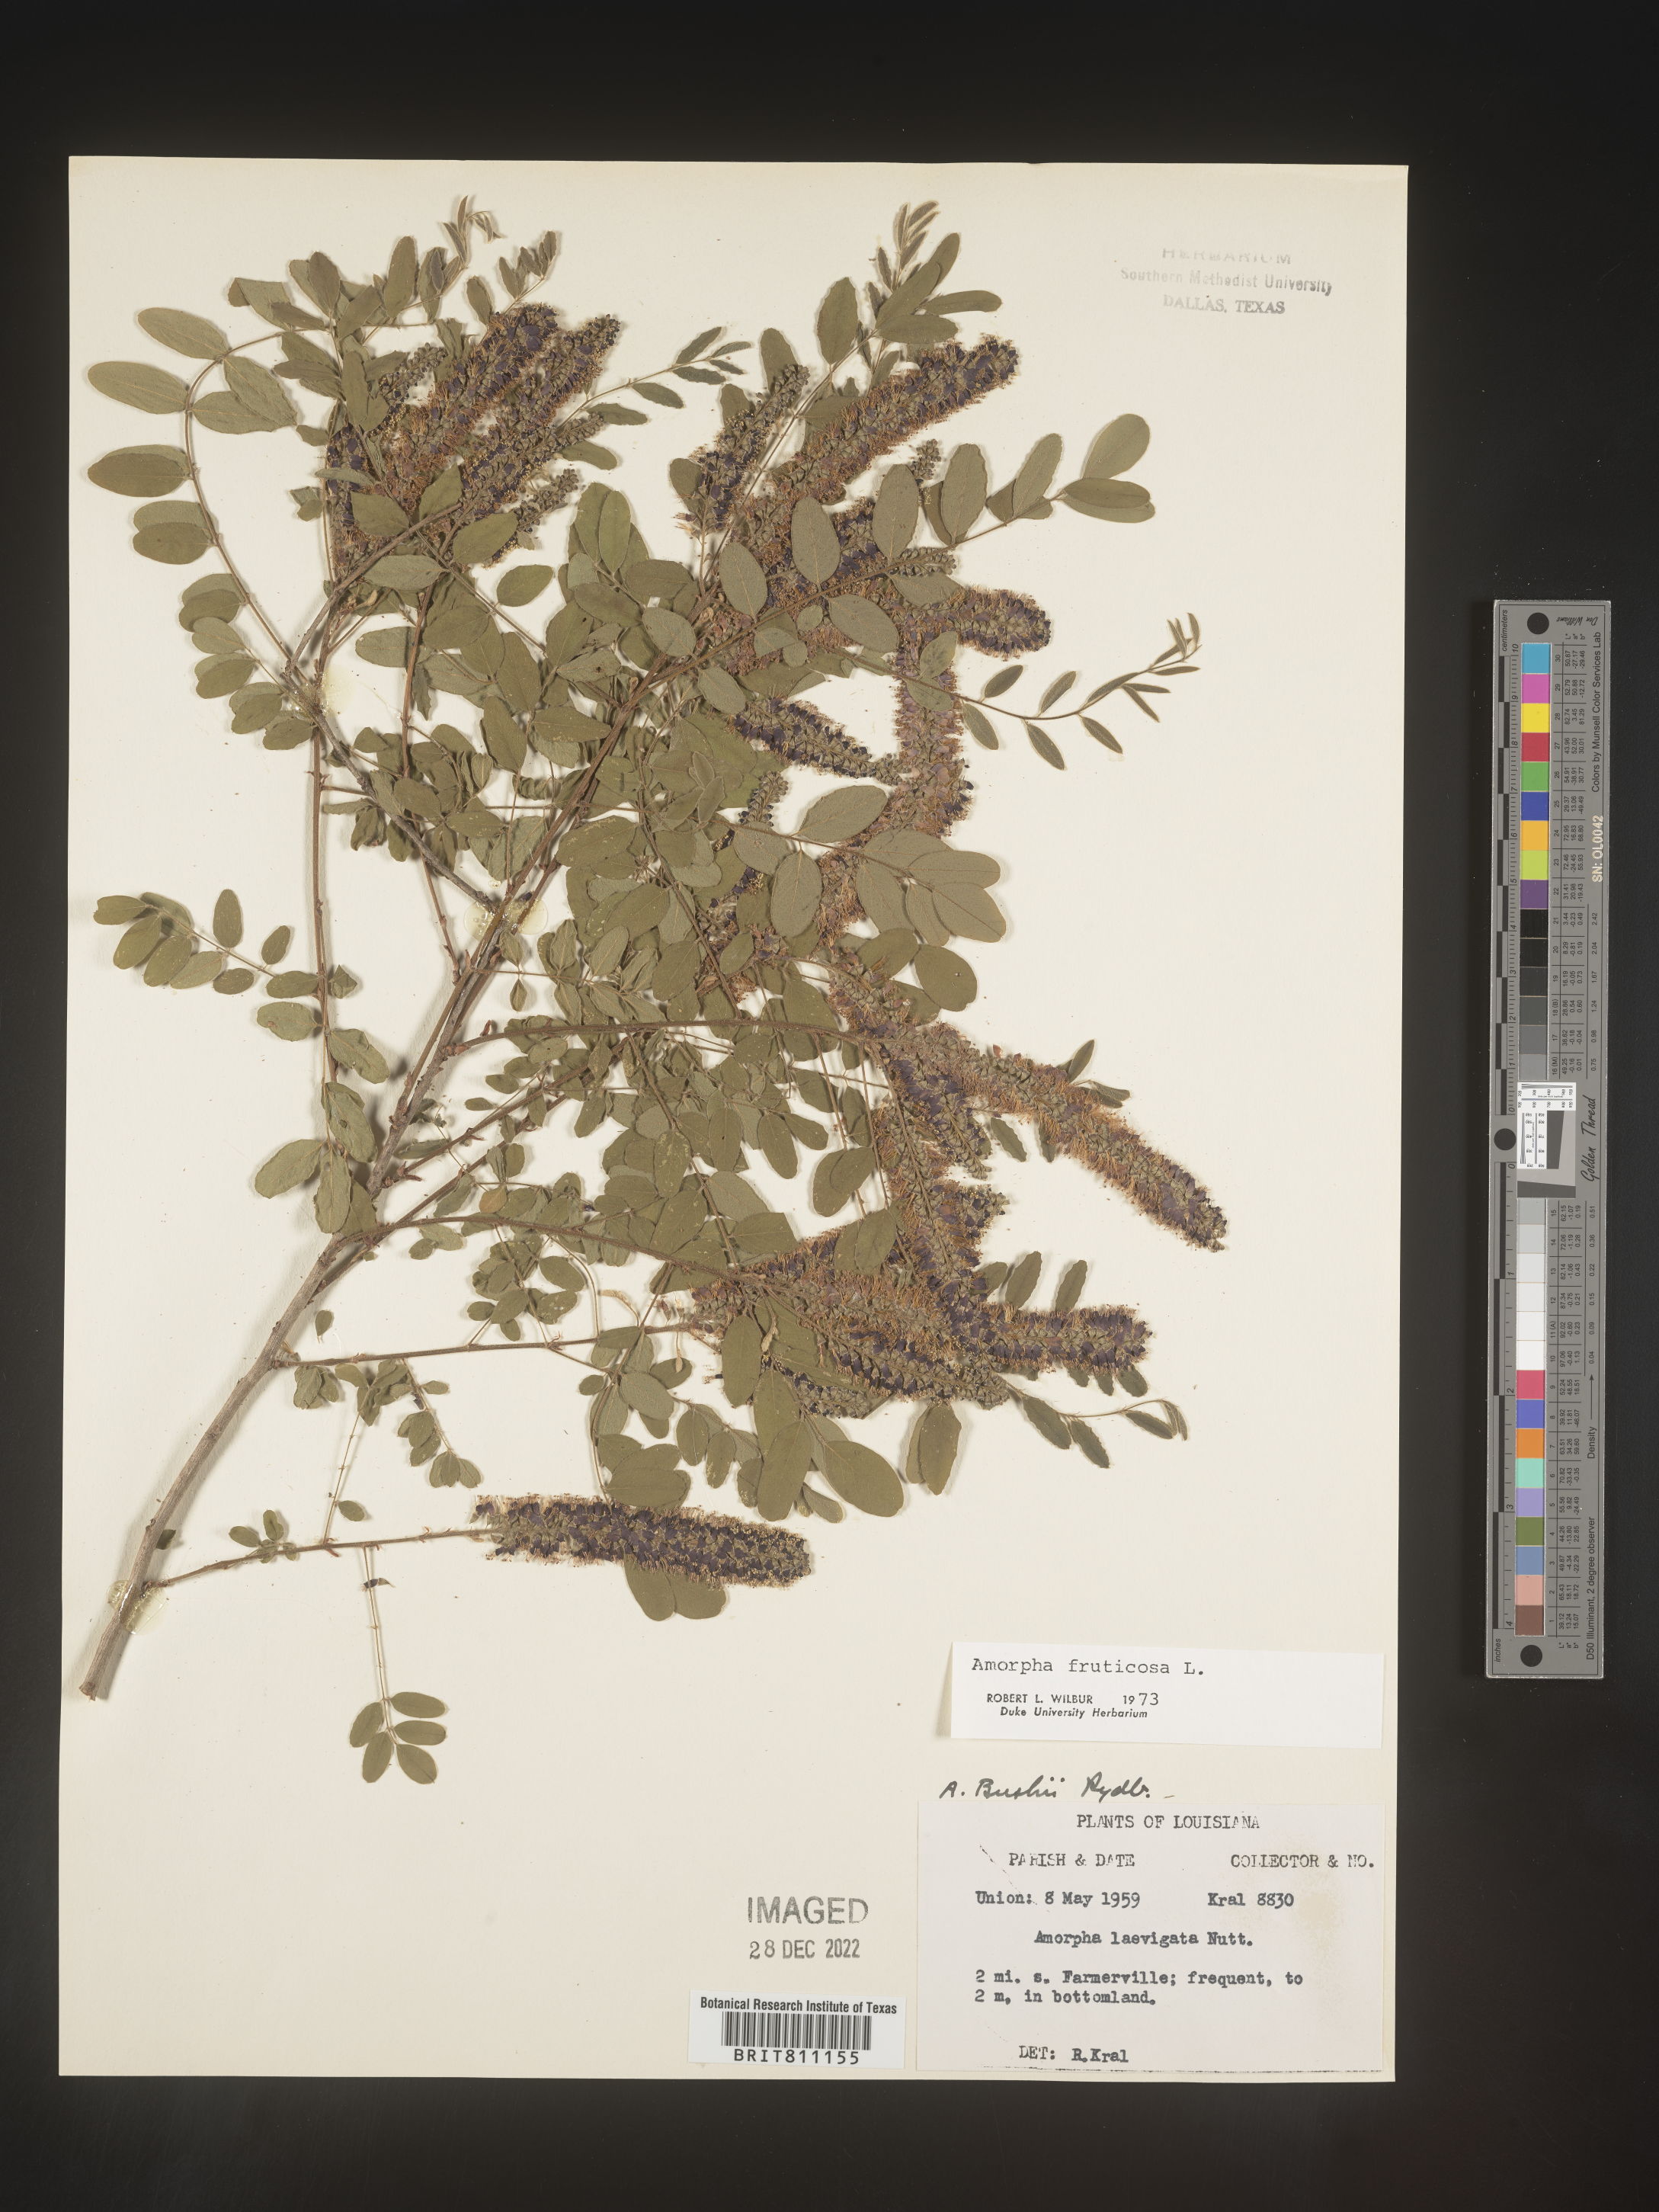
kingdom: Plantae
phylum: Tracheophyta
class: Magnoliopsida
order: Fabales
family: Fabaceae
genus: Amorpha
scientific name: Amorpha fruticosa
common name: False indigo
